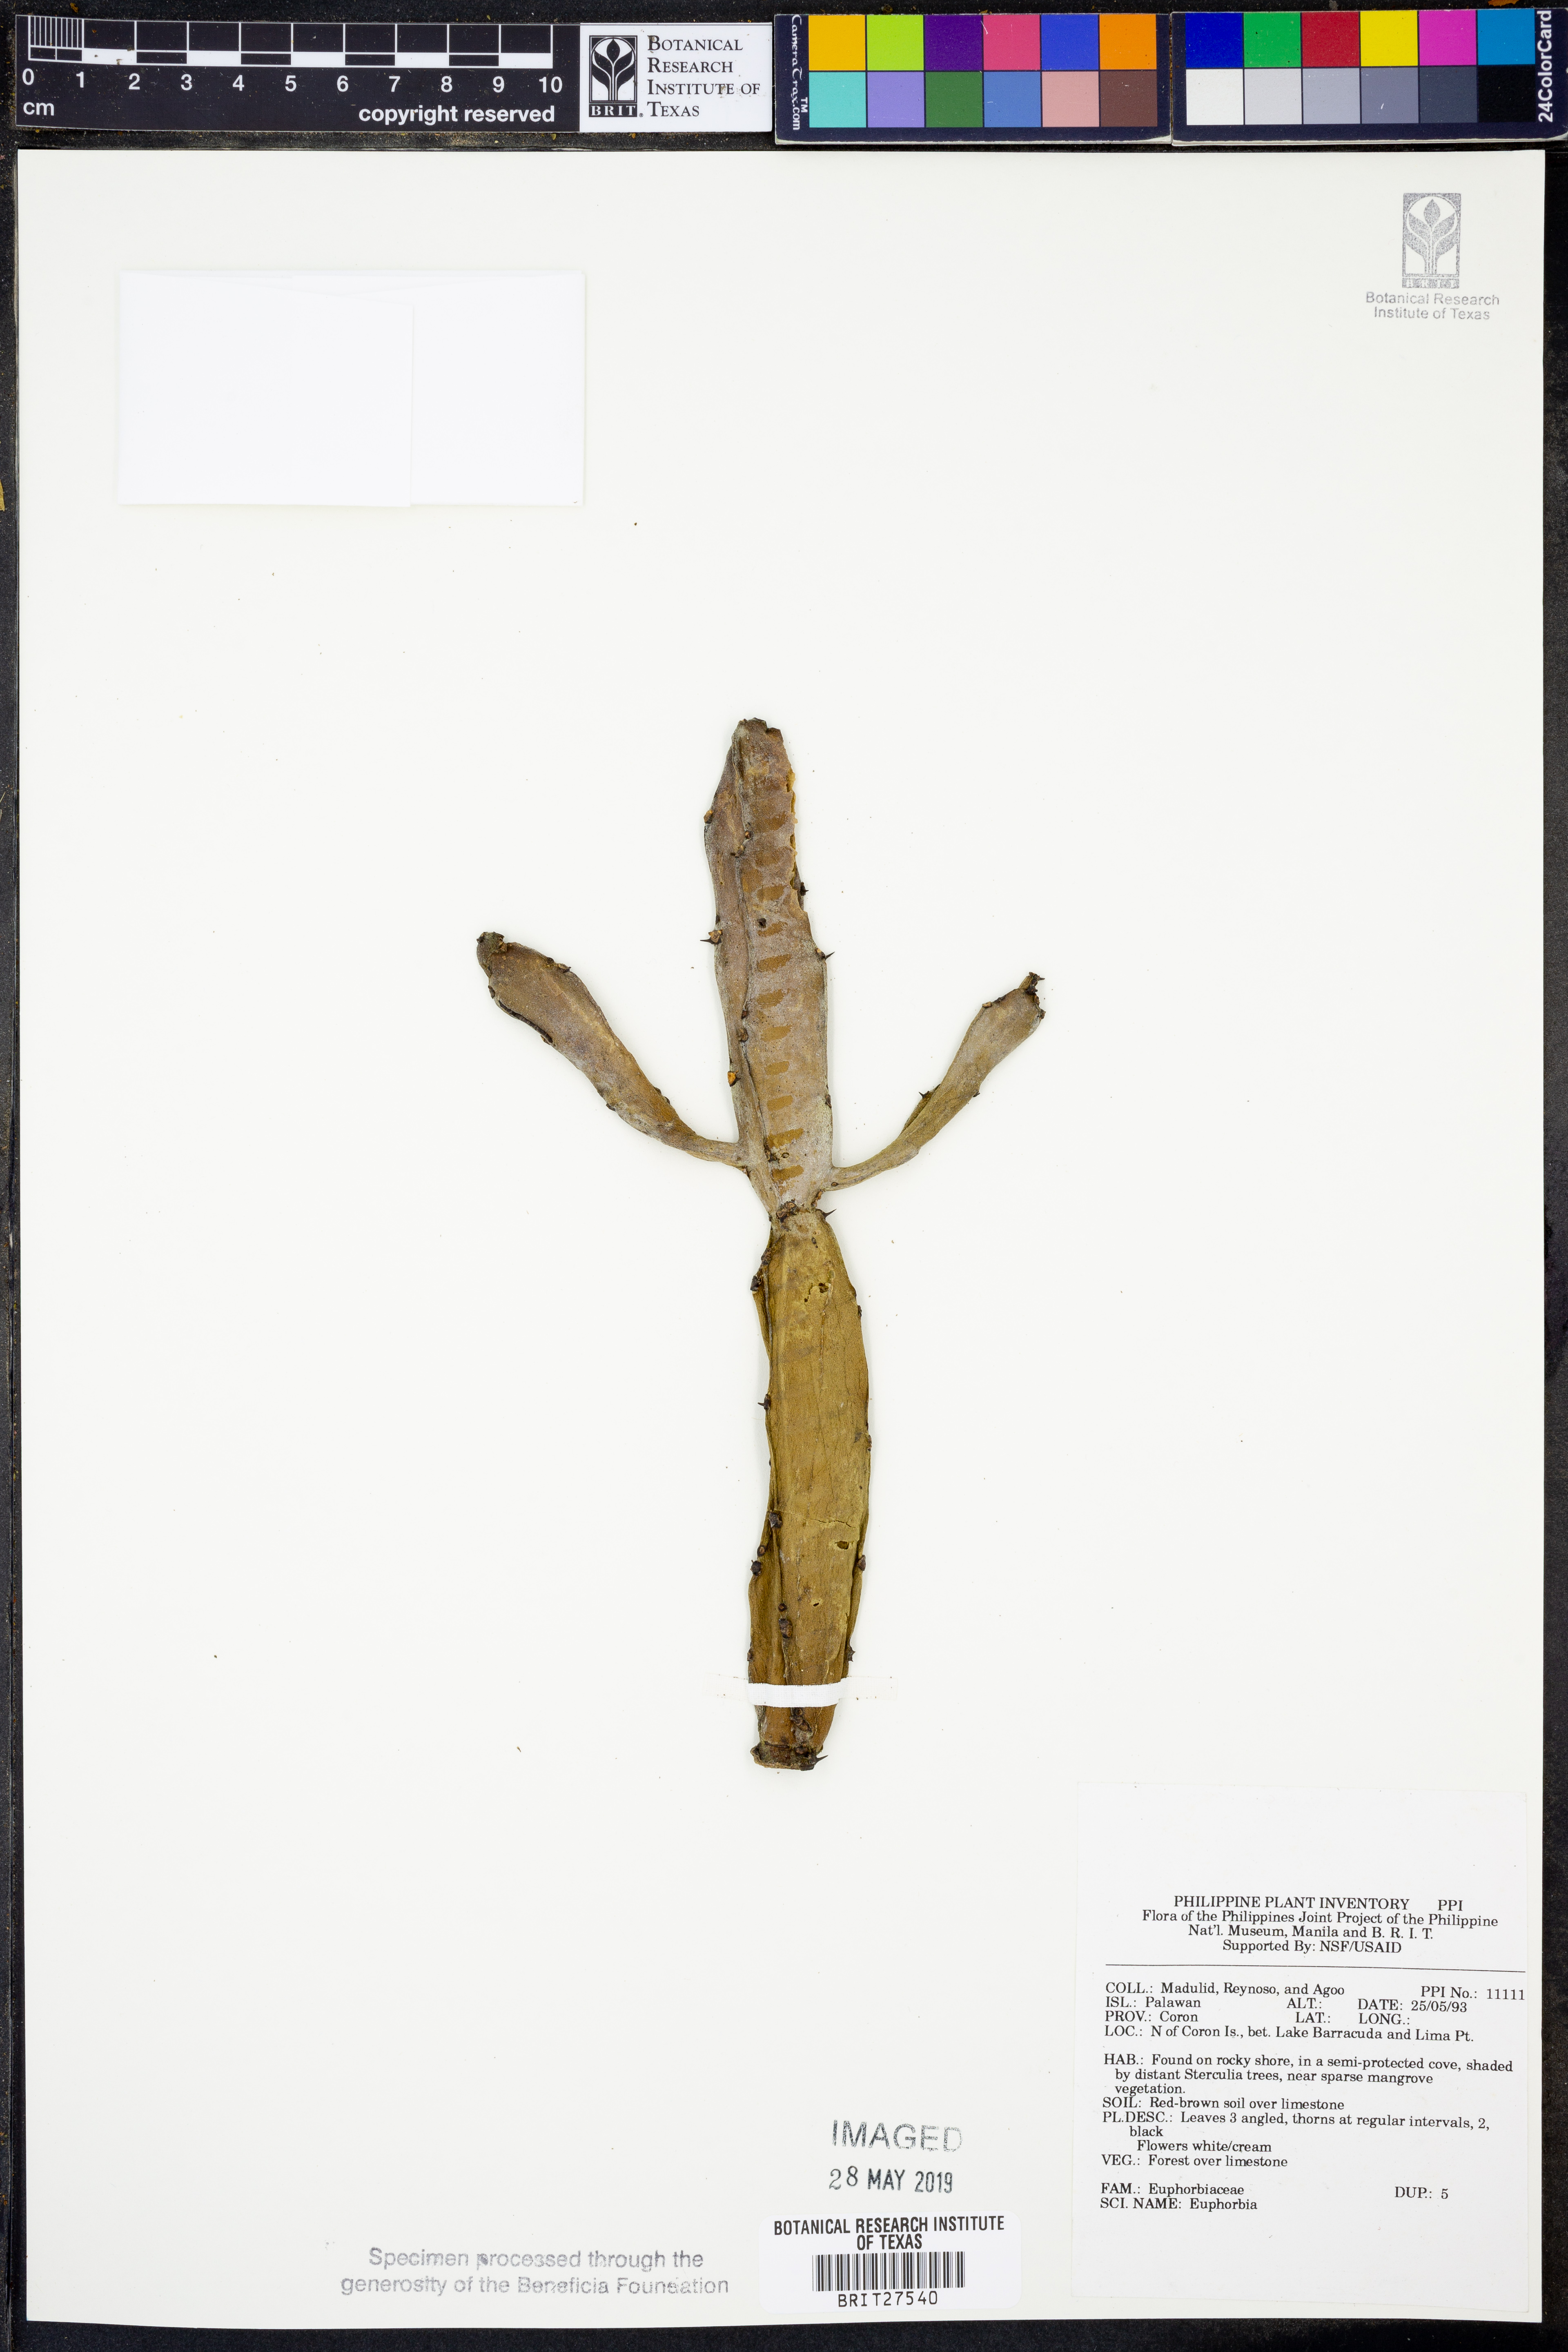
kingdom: Plantae
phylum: Tracheophyta
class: Magnoliopsida
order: Malpighiales
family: Euphorbiaceae
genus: Euphorbia
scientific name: Euphorbia
